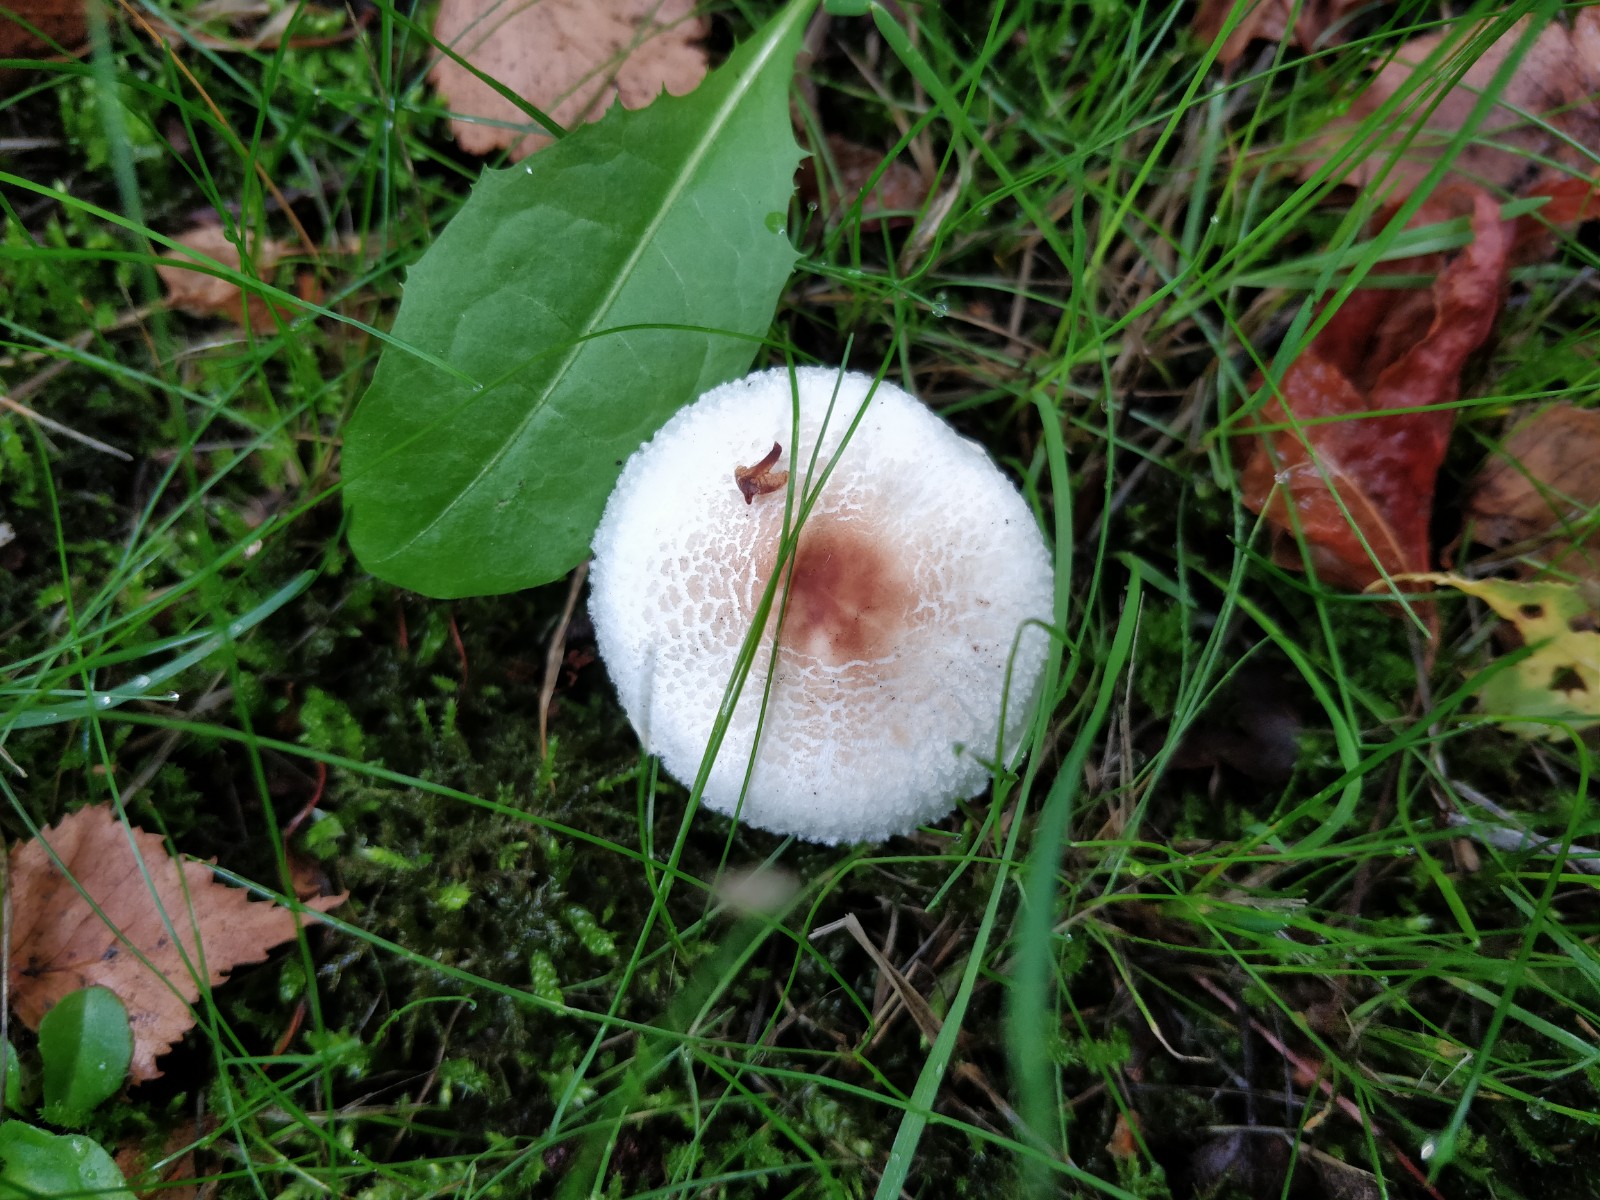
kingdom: Fungi
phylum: Basidiomycota
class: Agaricomycetes
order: Agaricales
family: Agaricaceae
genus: Lepiota
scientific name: Lepiota cristata
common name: stinkende parasolhat
